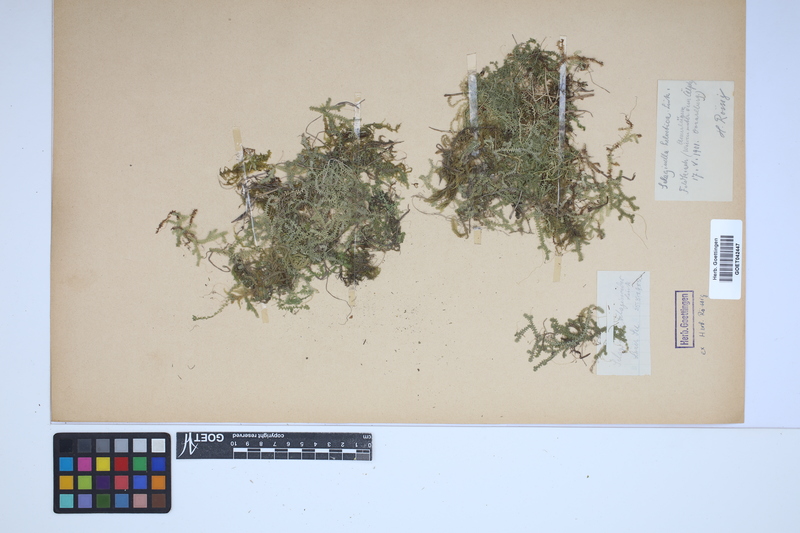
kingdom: Plantae
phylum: Tracheophyta
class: Lycopodiopsida
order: Selaginellales
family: Selaginellaceae
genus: Selaginella
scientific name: Selaginella helvetica
